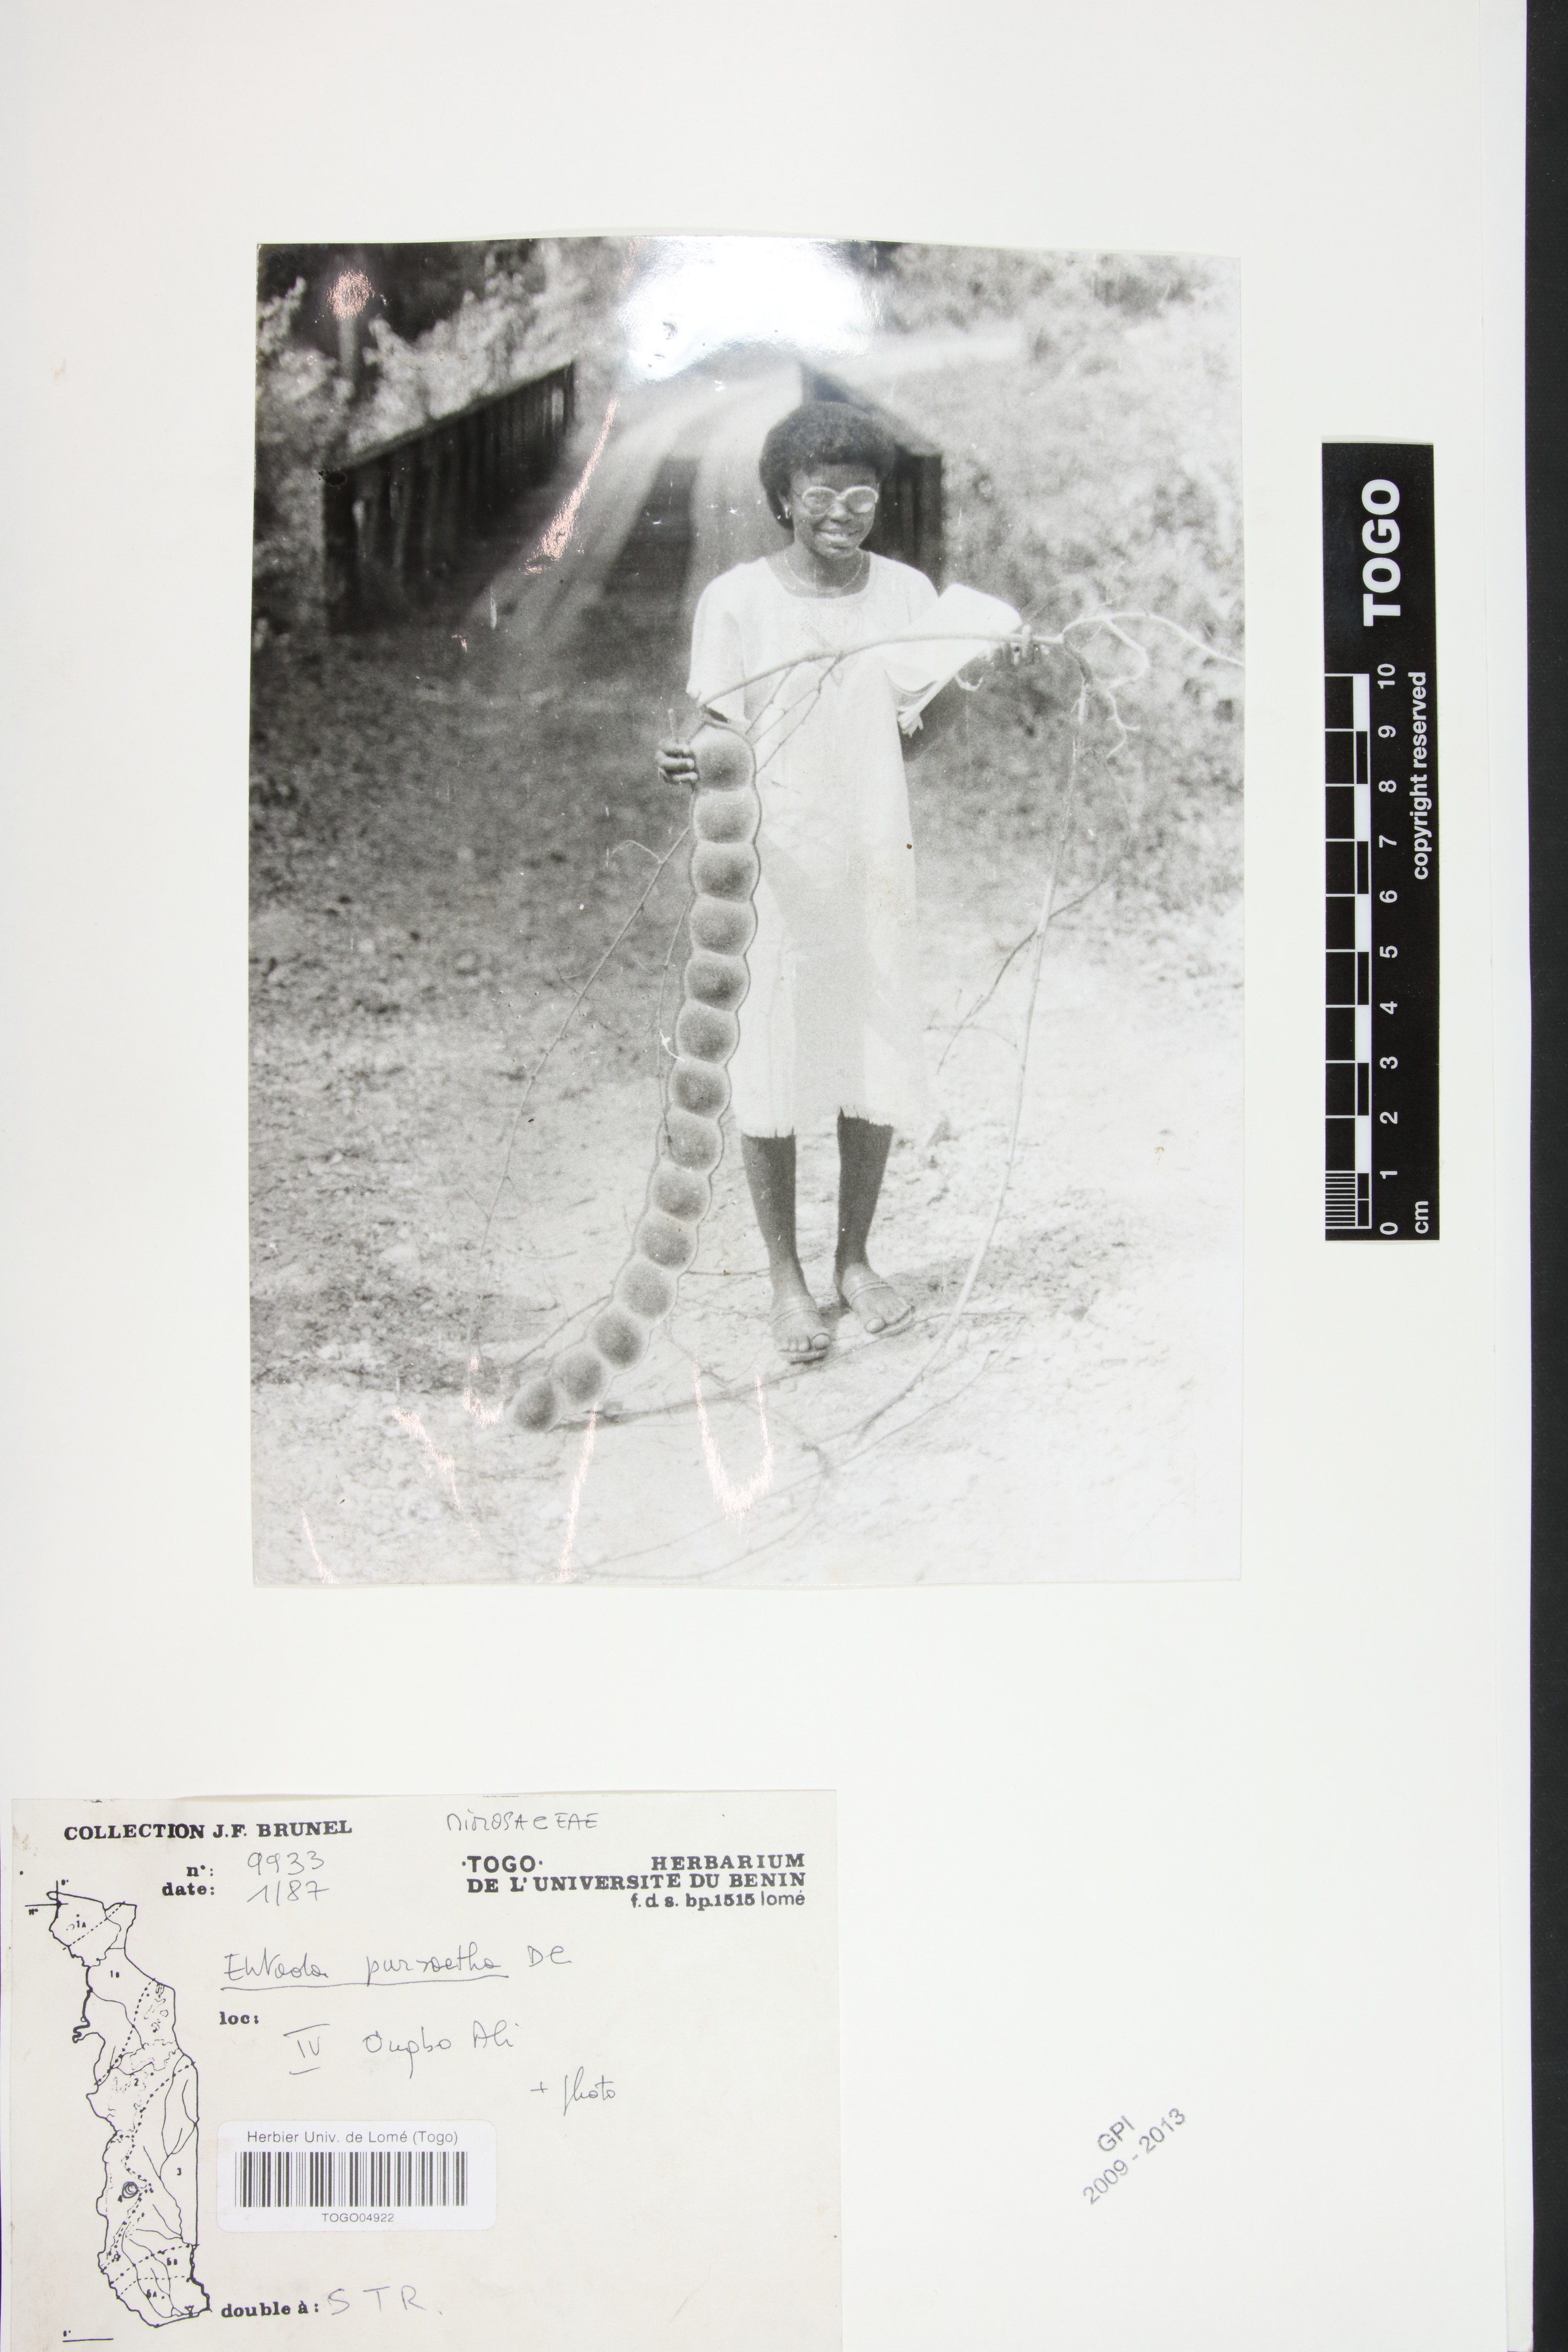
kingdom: Plantae
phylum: Tracheophyta
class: Magnoliopsida
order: Fabales
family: Fabaceae
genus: Entada
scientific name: Entada rheedei
